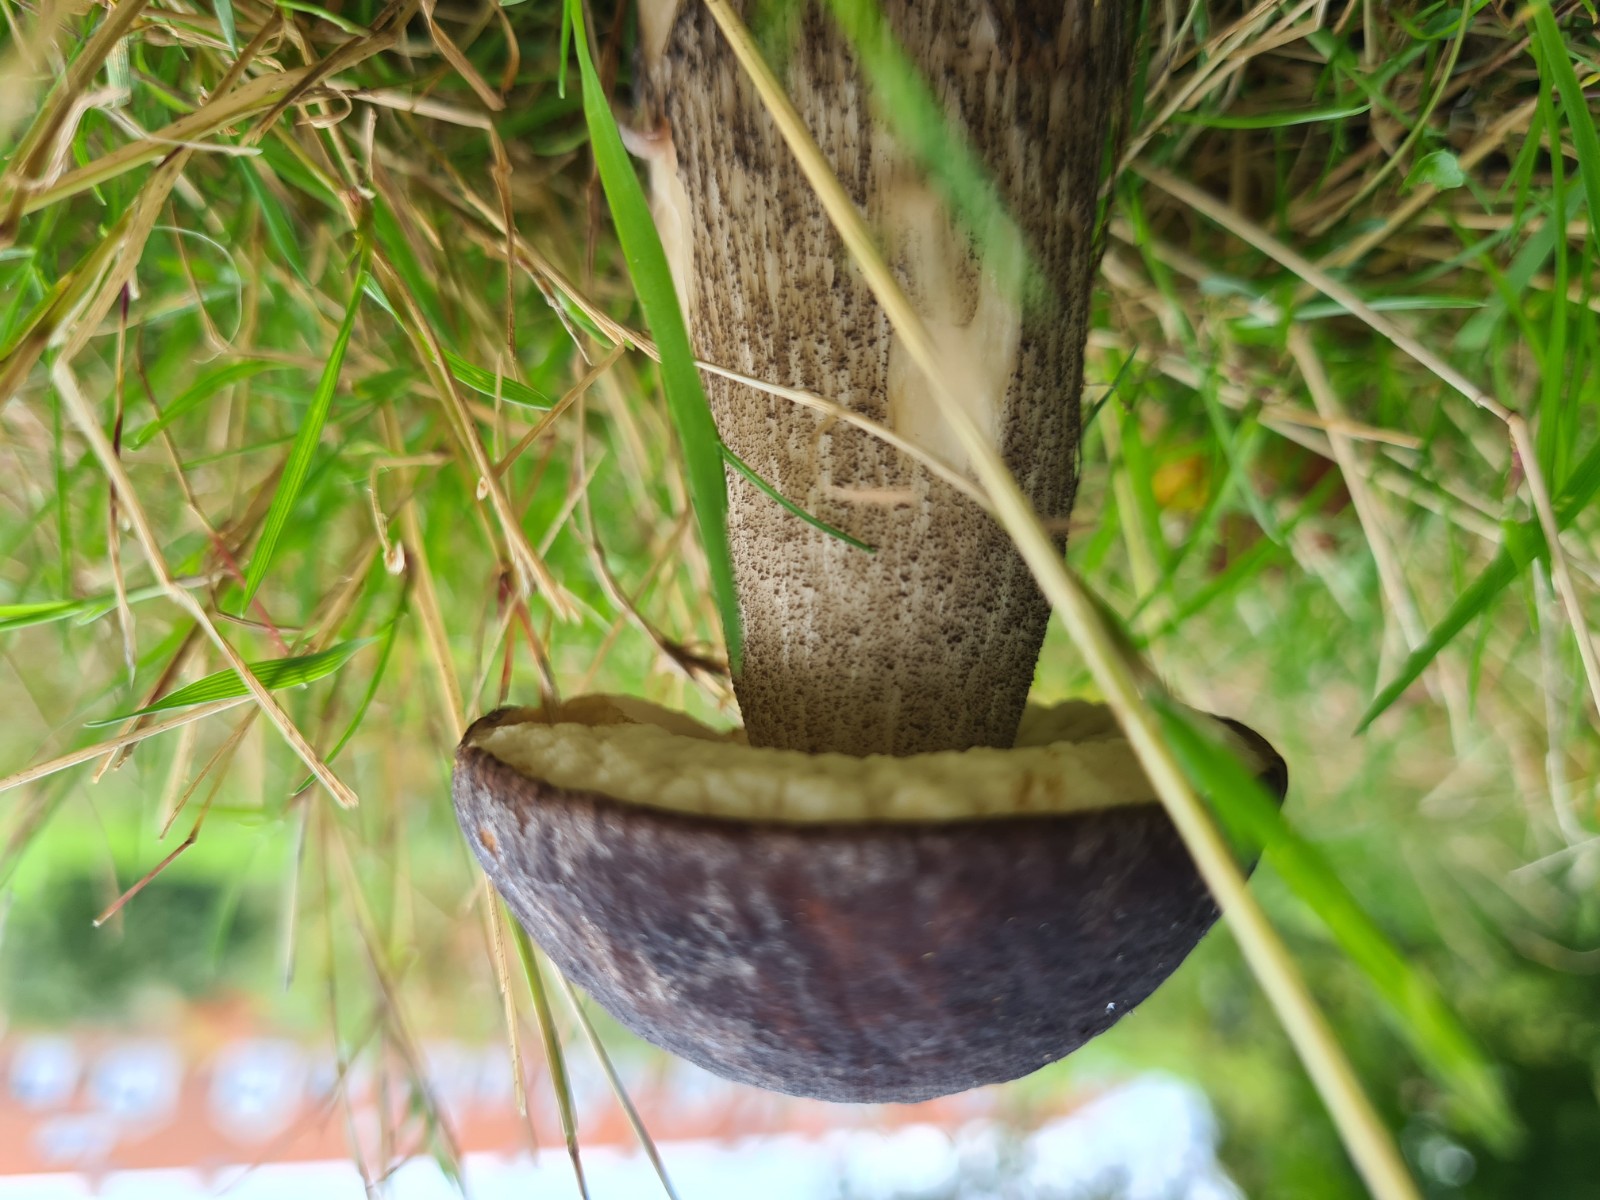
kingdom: Fungi
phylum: Basidiomycota
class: Agaricomycetes
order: Boletales
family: Boletaceae
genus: Leccinum
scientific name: Leccinum
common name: skælrørhat
